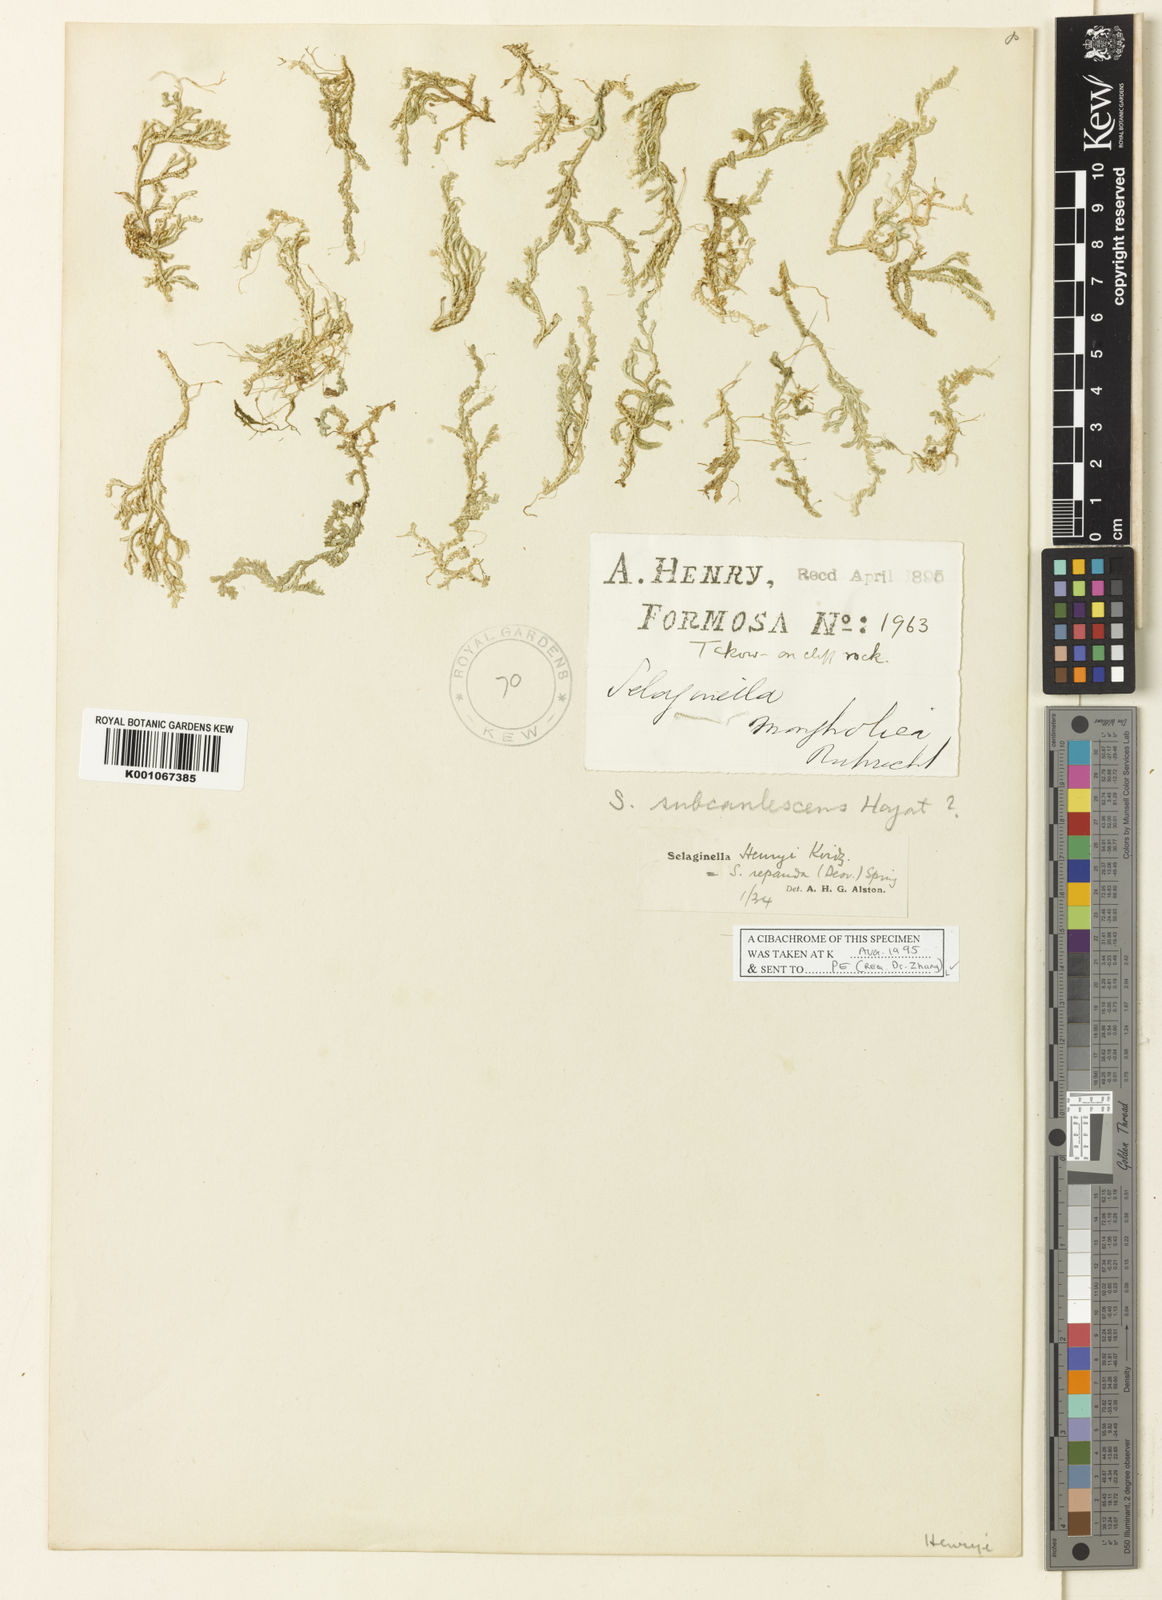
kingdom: Plantae
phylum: Tracheophyta
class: Lycopodiopsida
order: Selaginellales
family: Selaginellaceae
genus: Selaginella
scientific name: Selaginella repanda
